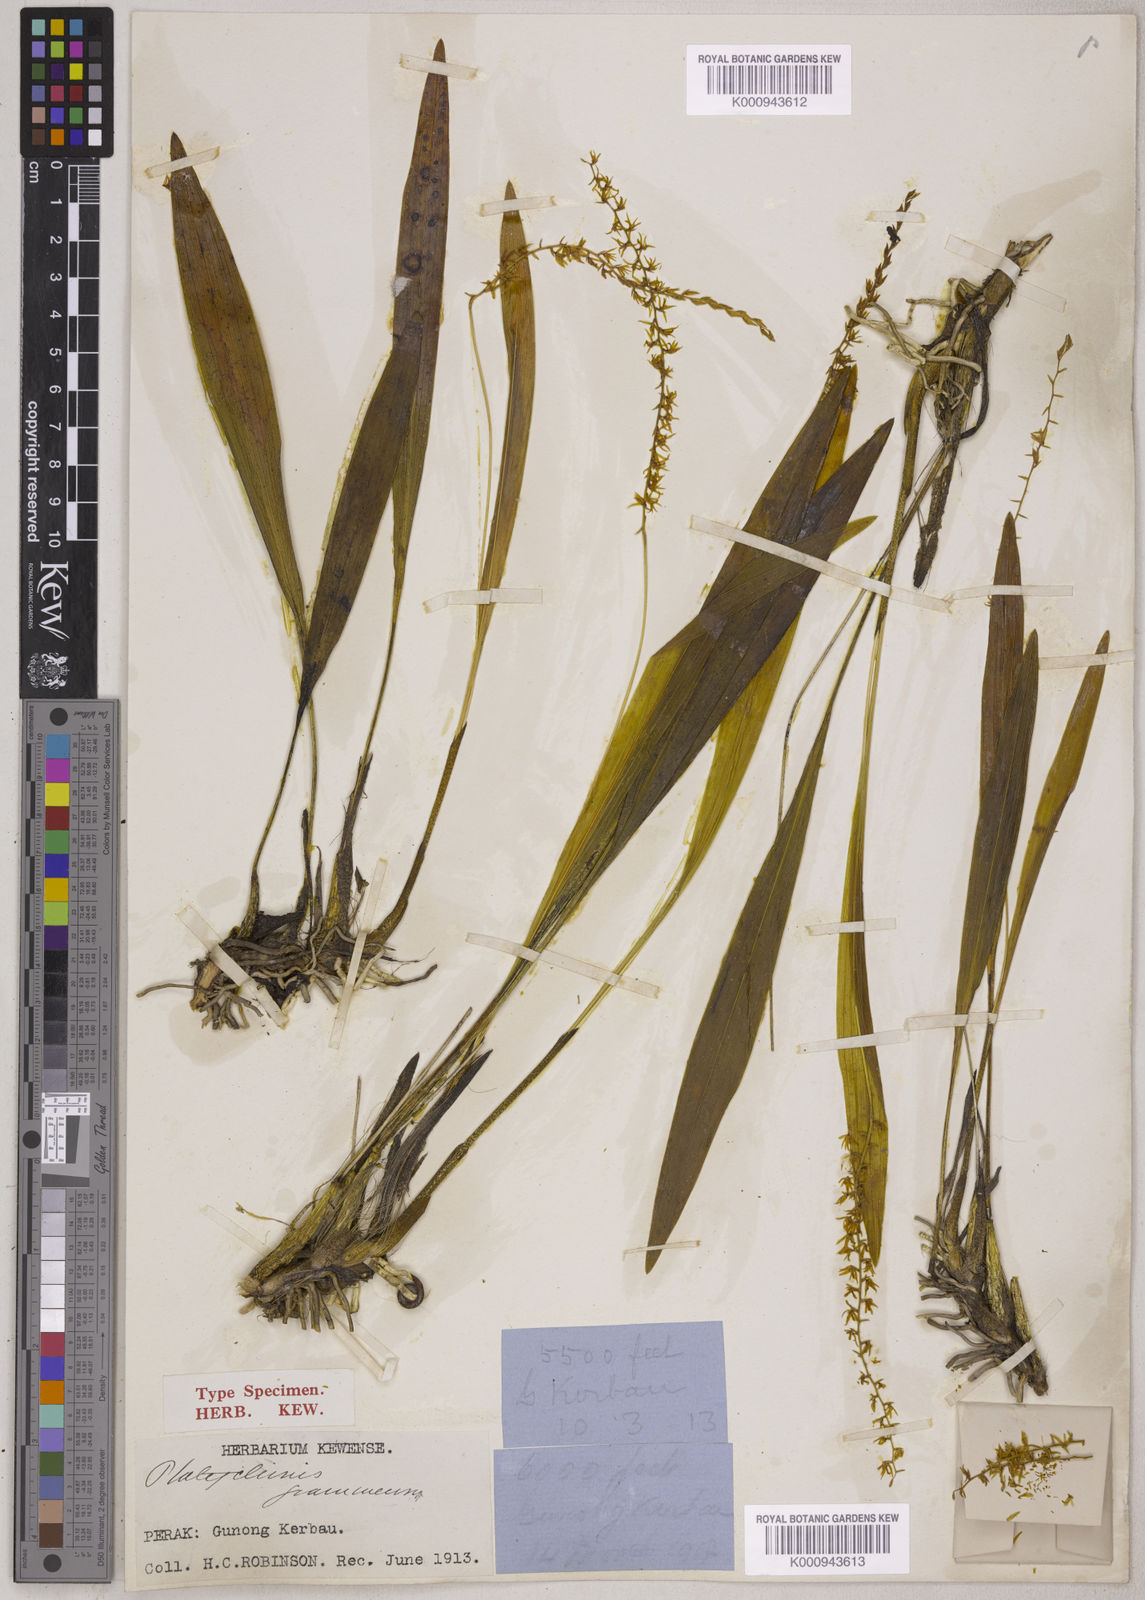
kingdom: Plantae
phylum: Tracheophyta
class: Liliopsida
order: Asparagales
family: Orchidaceae
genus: Coelogyne
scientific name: Coelogyne graminea
